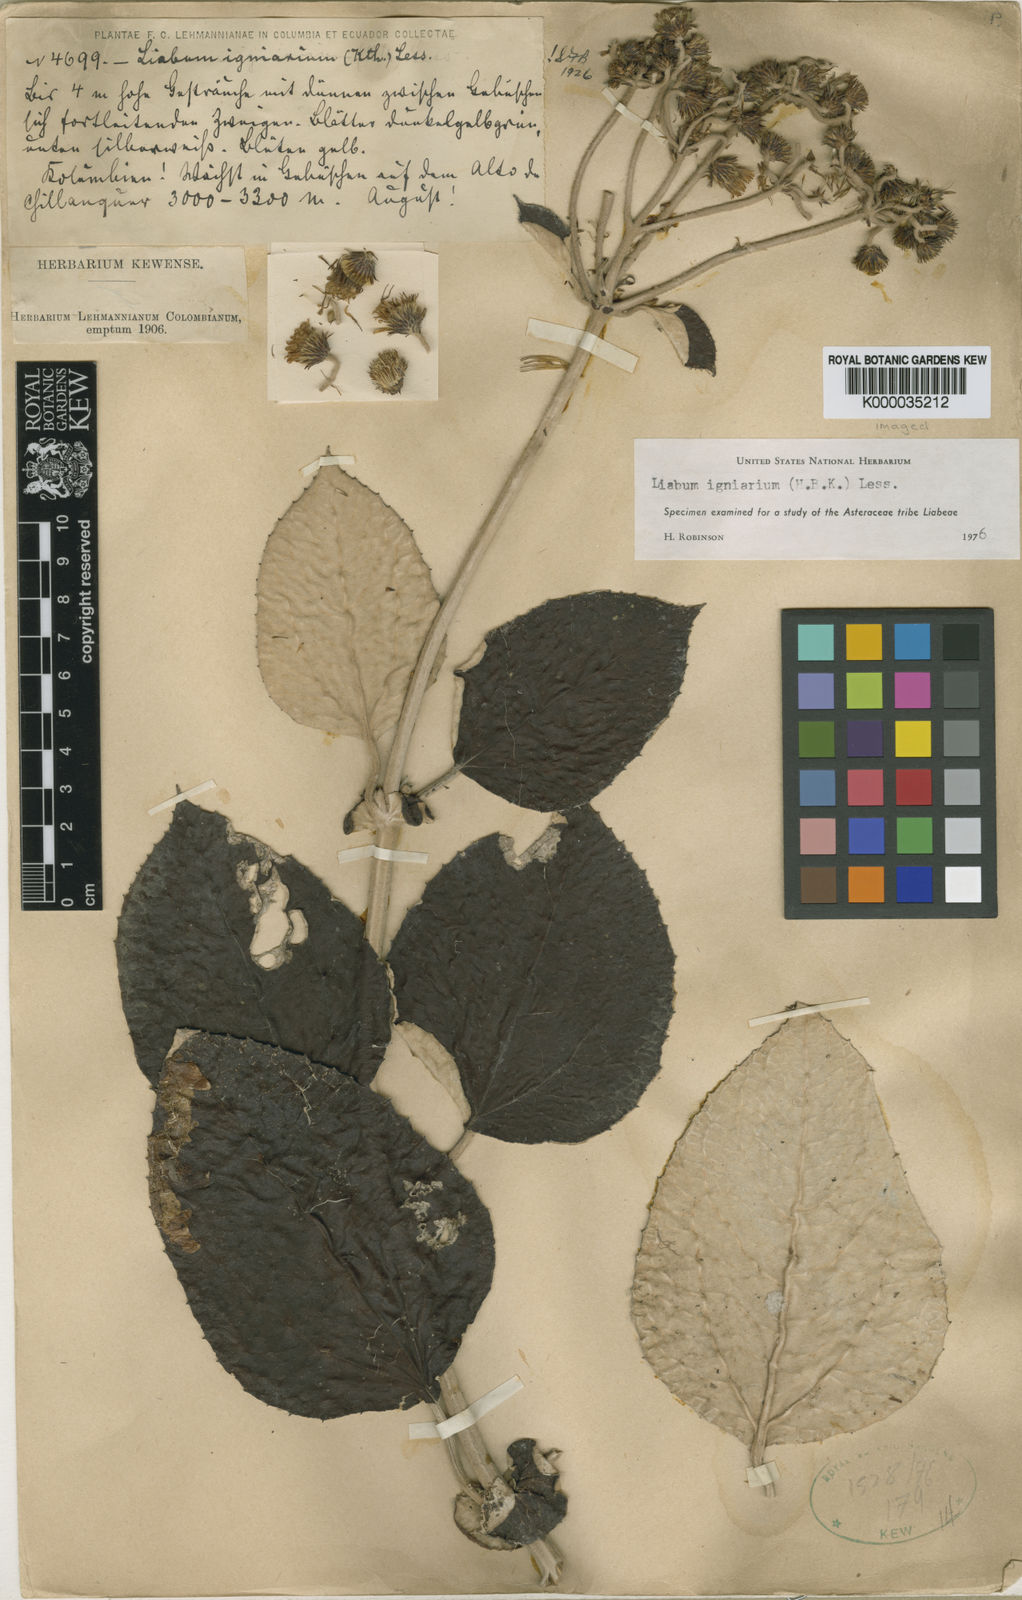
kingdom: Plantae
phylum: Tracheophyta
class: Magnoliopsida
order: Asterales
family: Asteraceae
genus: Liabum
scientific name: Liabum igniarium
